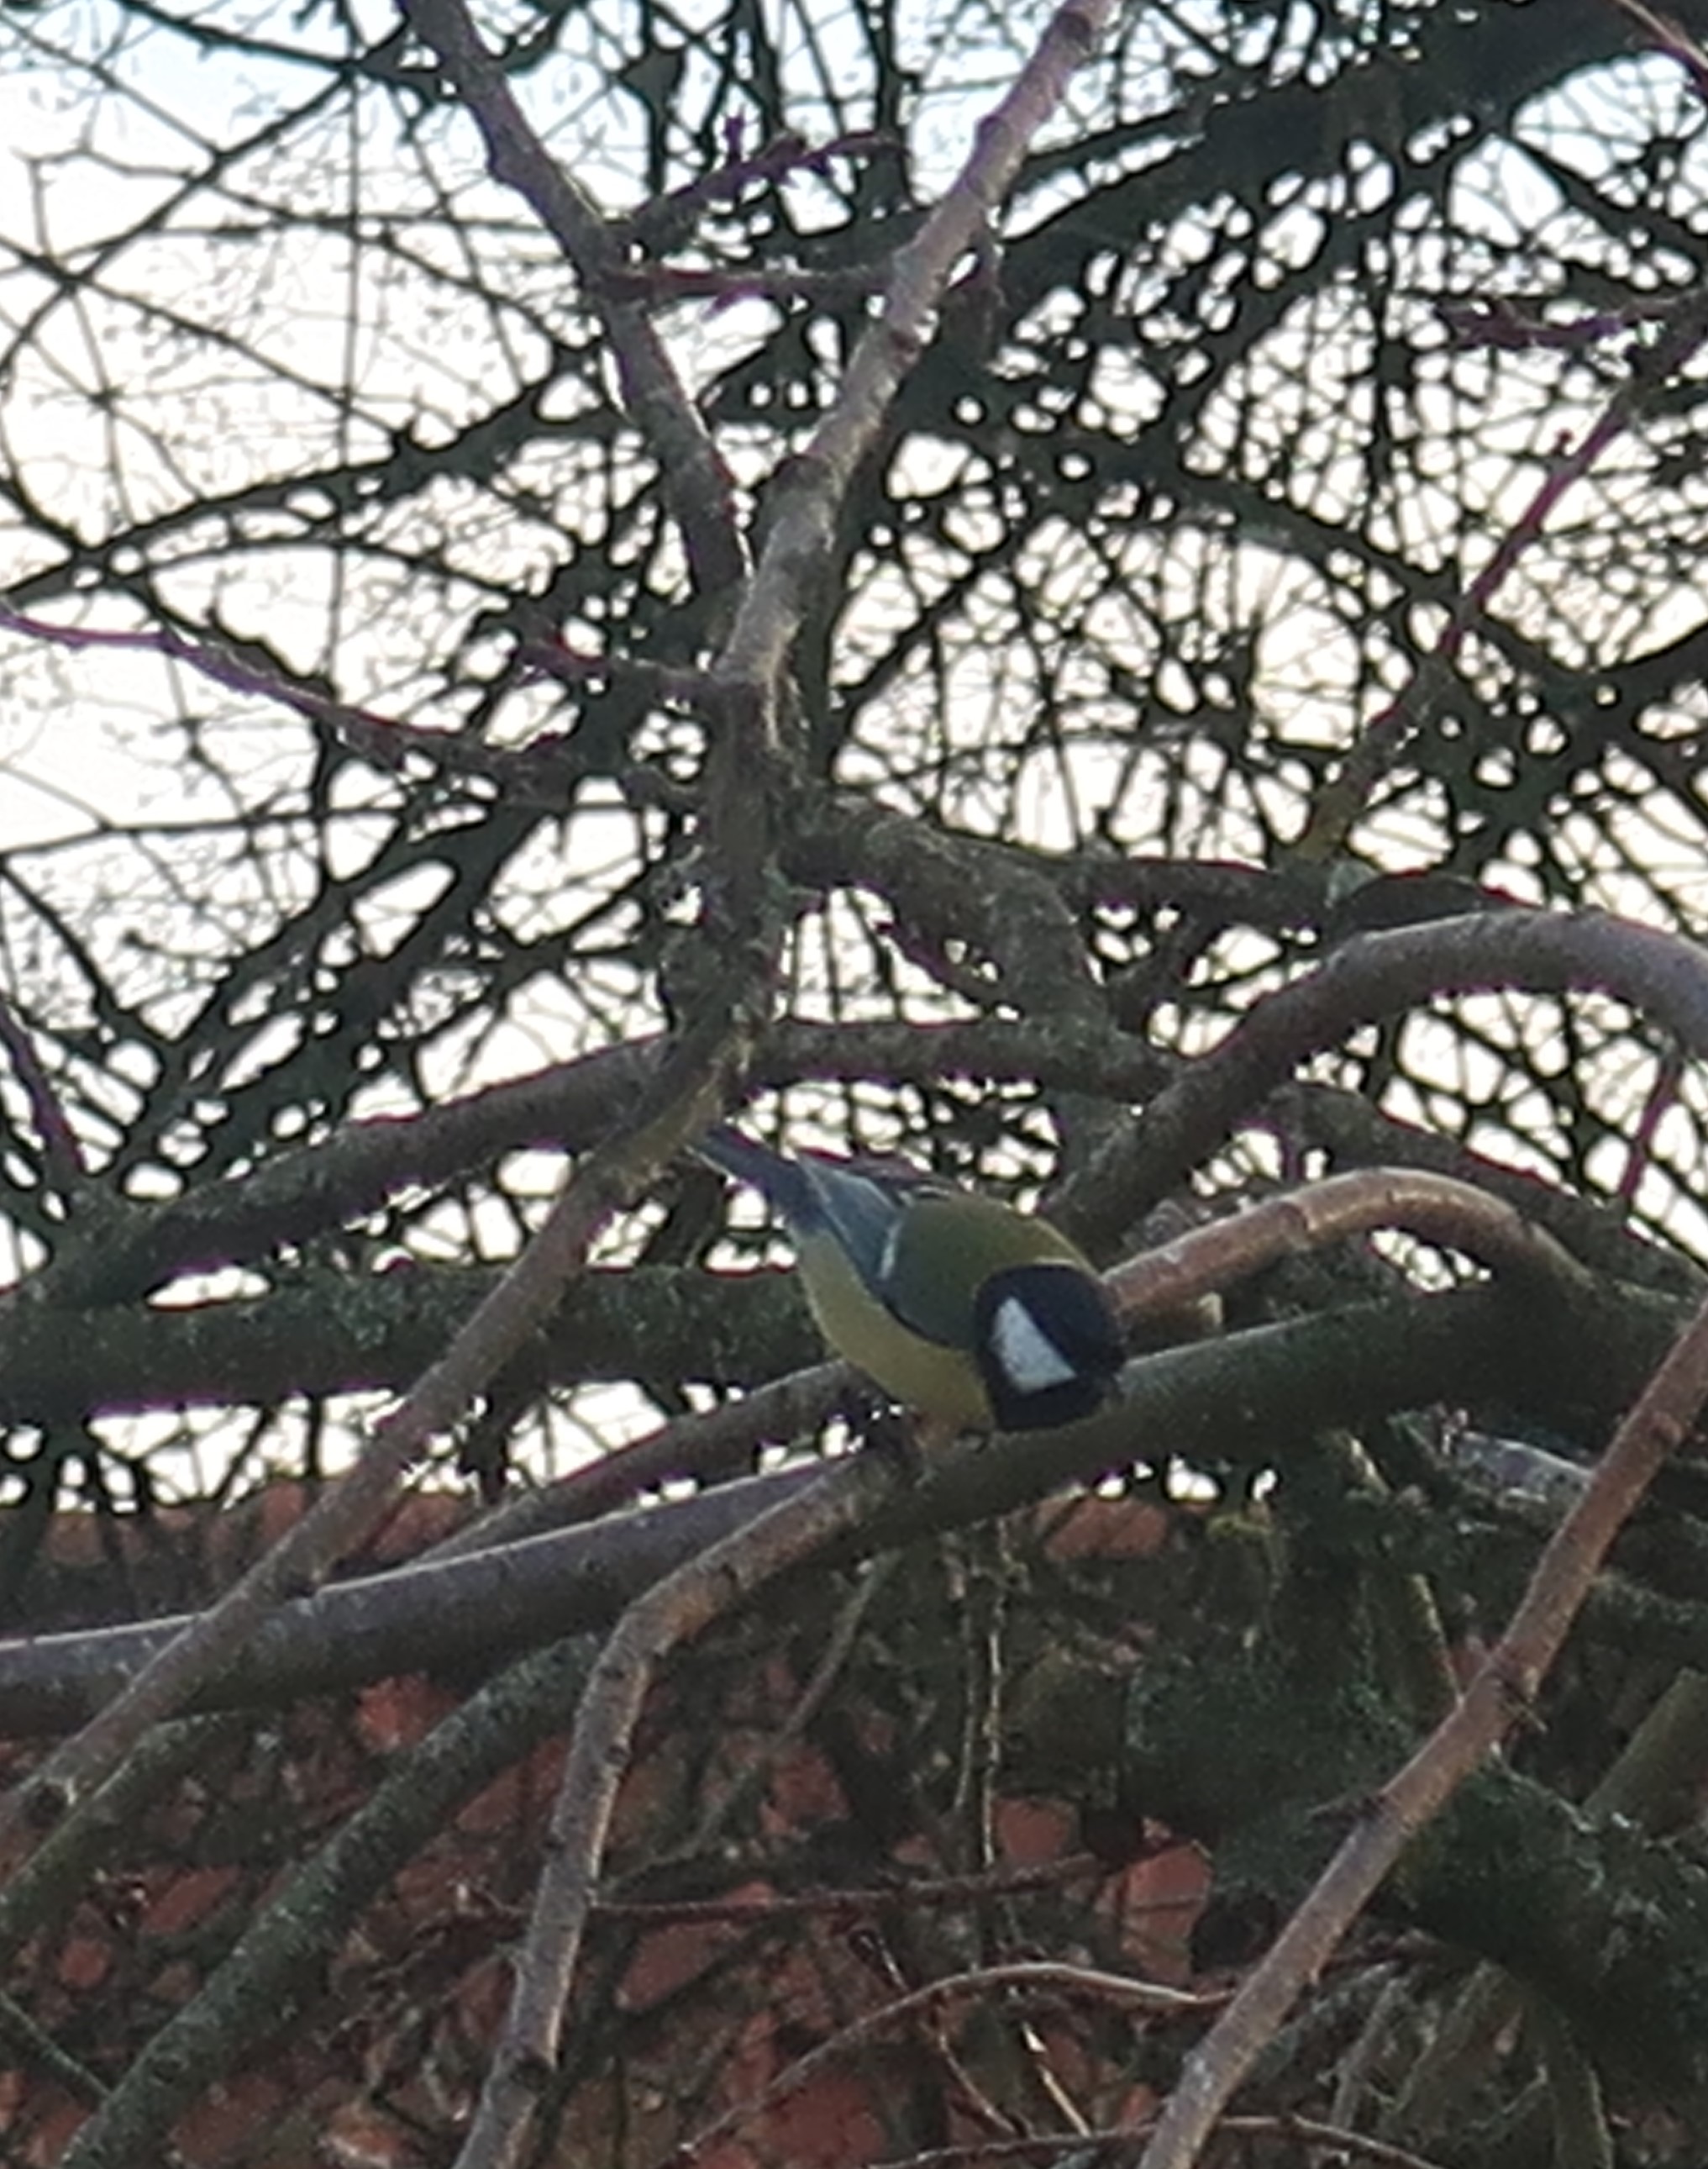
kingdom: Animalia
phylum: Chordata
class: Aves
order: Passeriformes
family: Paridae
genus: Parus
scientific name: Parus major
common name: Musvit
